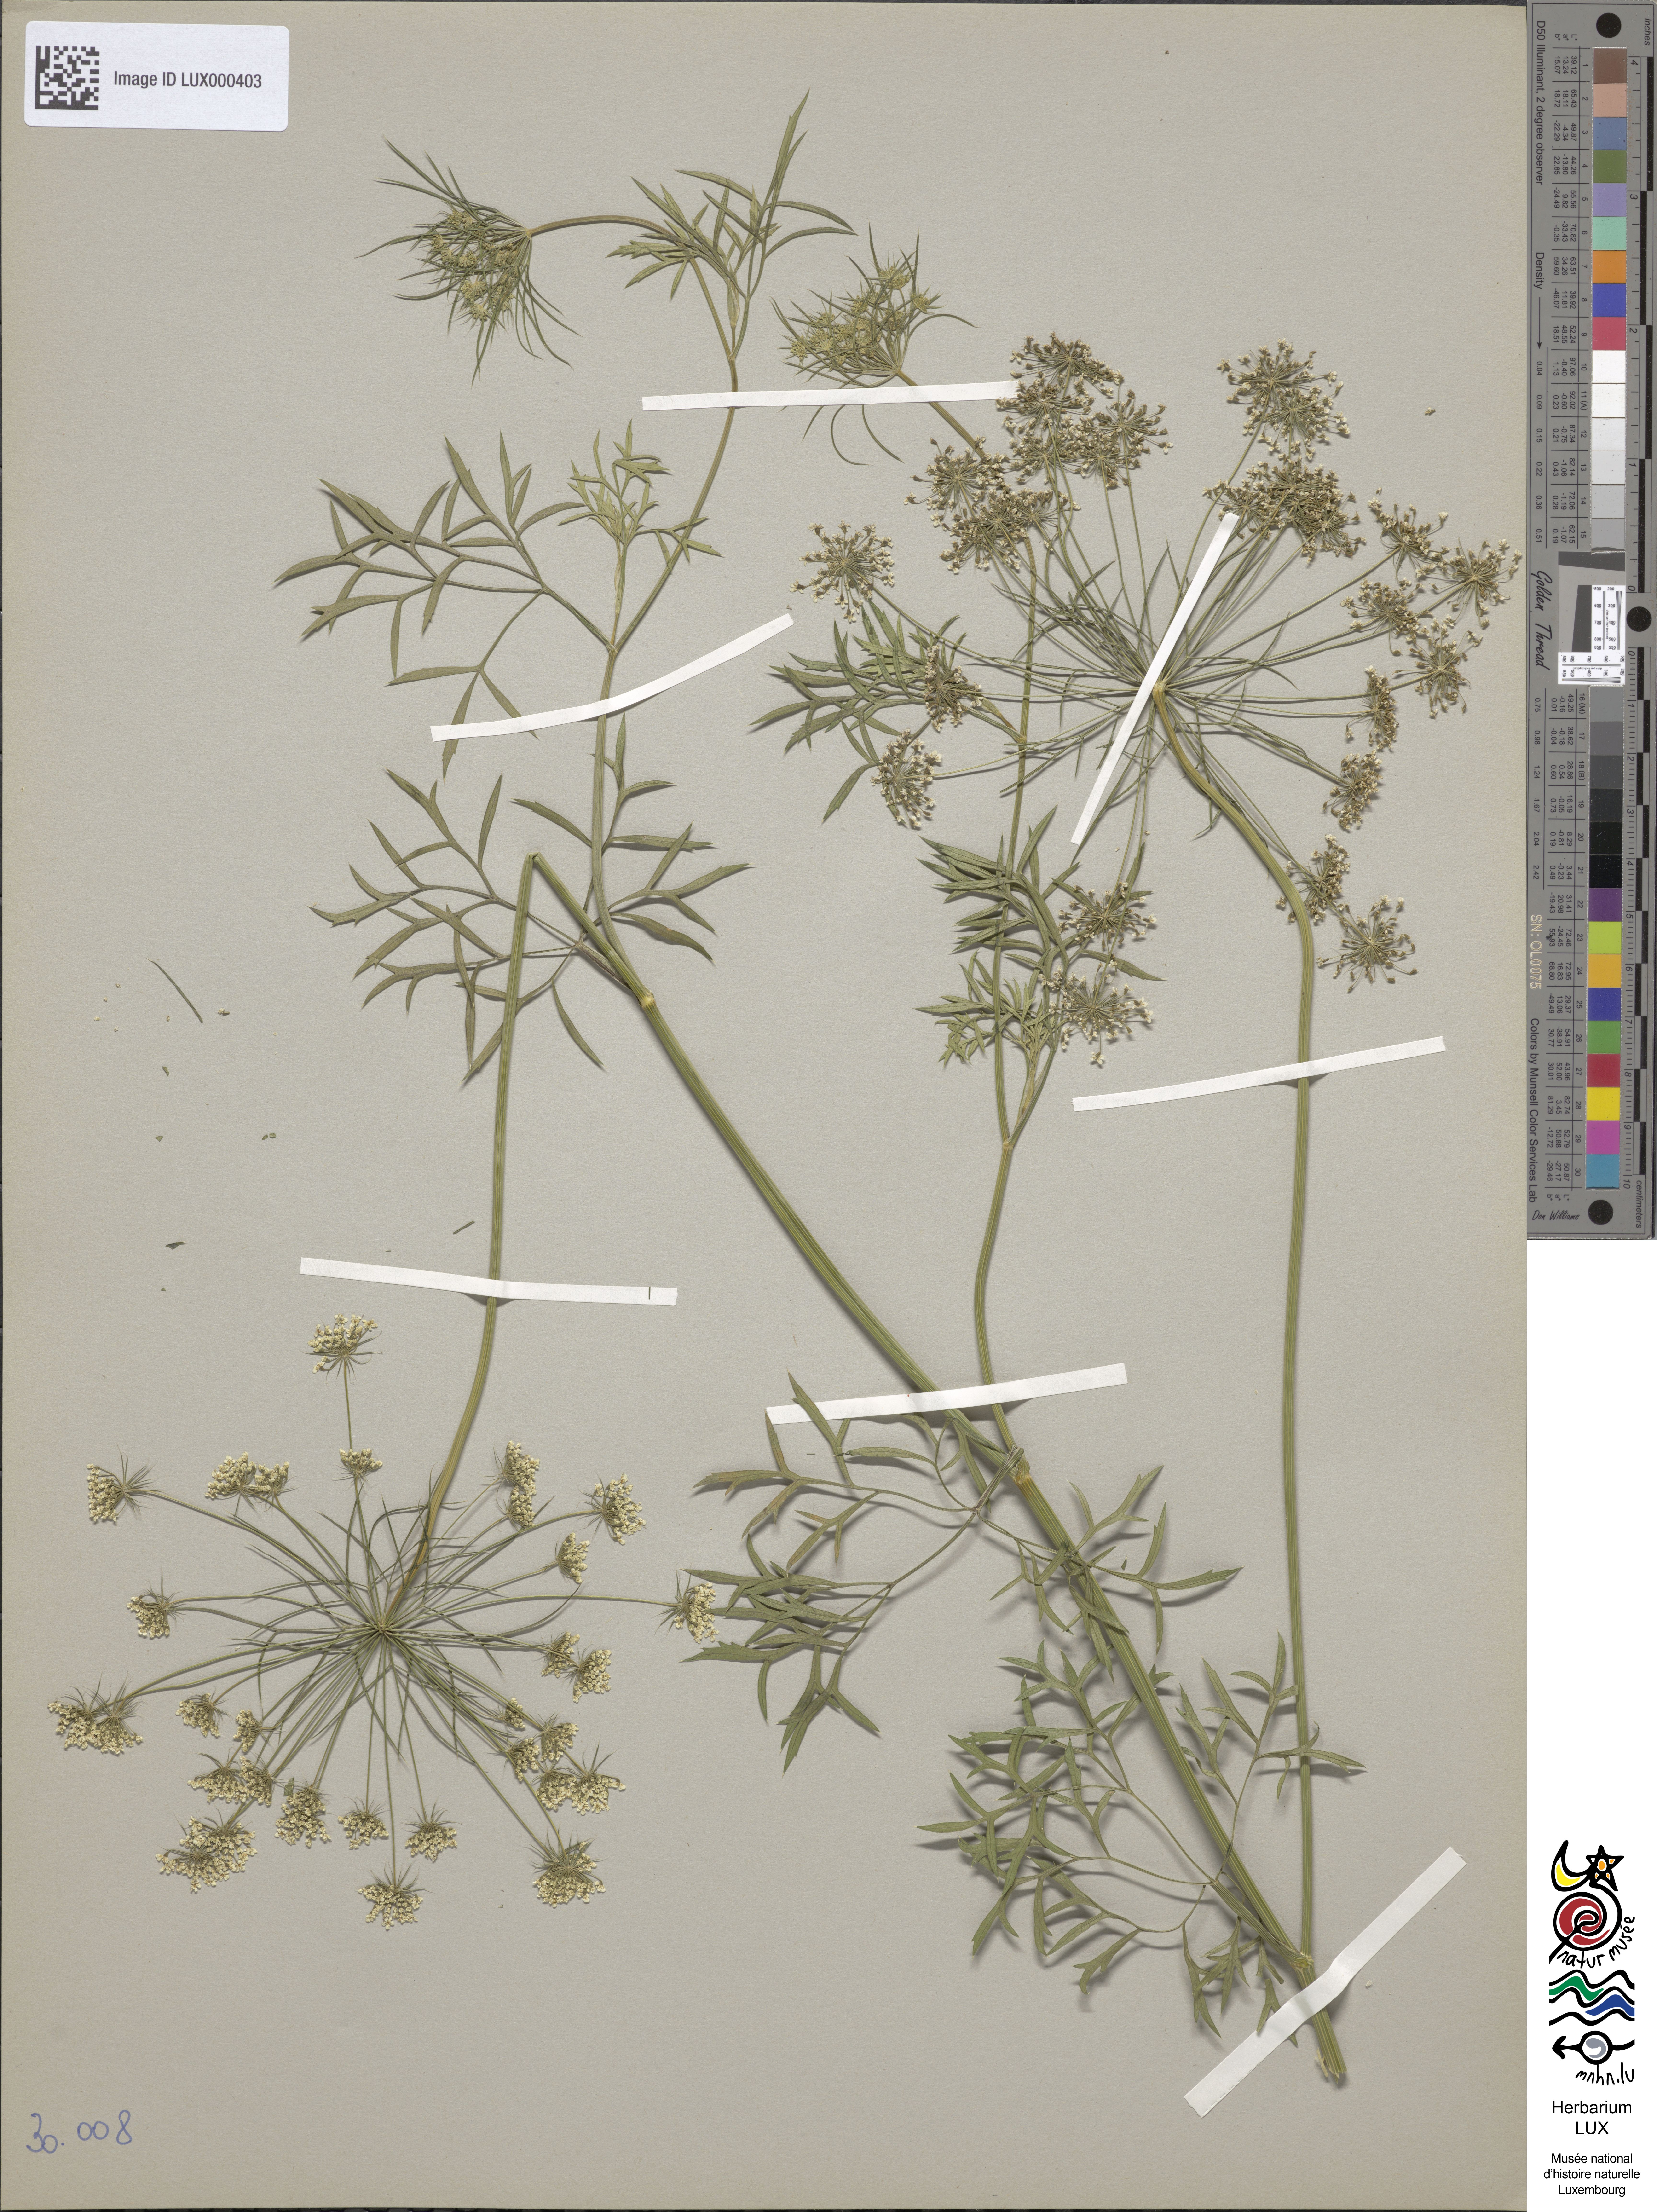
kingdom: Plantae
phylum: Tracheophyta
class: Magnoliopsida
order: Apiales
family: Apiaceae
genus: Ammi
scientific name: Ammi majus
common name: Bullwort
